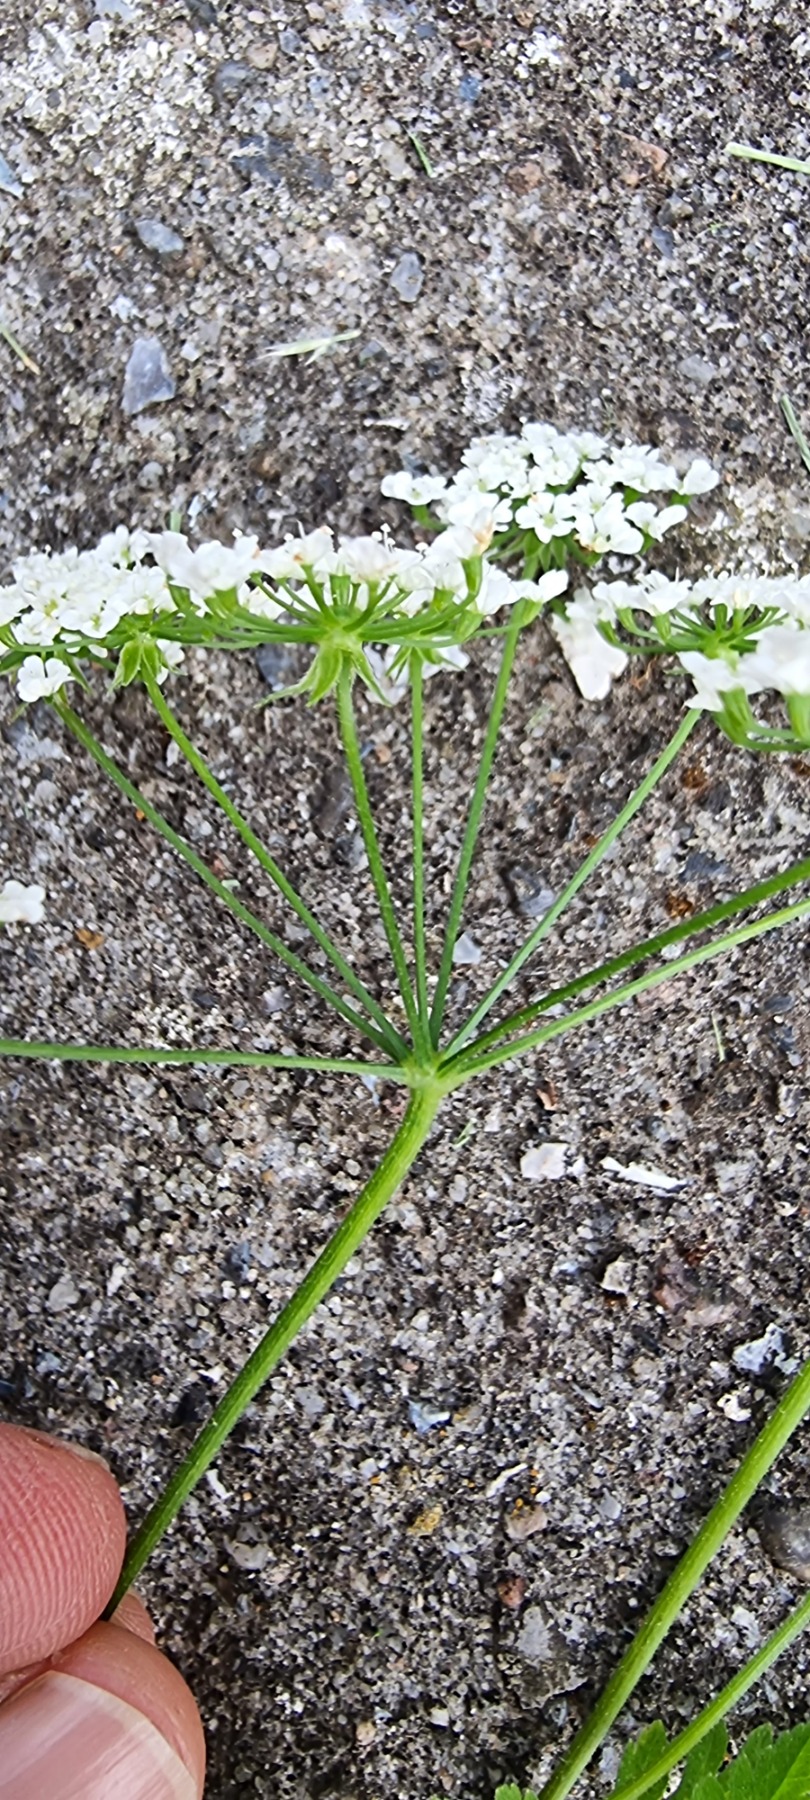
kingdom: Plantae
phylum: Tracheophyta
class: Magnoliopsida
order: Apiales
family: Apiaceae
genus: Chaerophyllum
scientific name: Chaerophyllum temulum
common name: Almindelig hulsvøb
